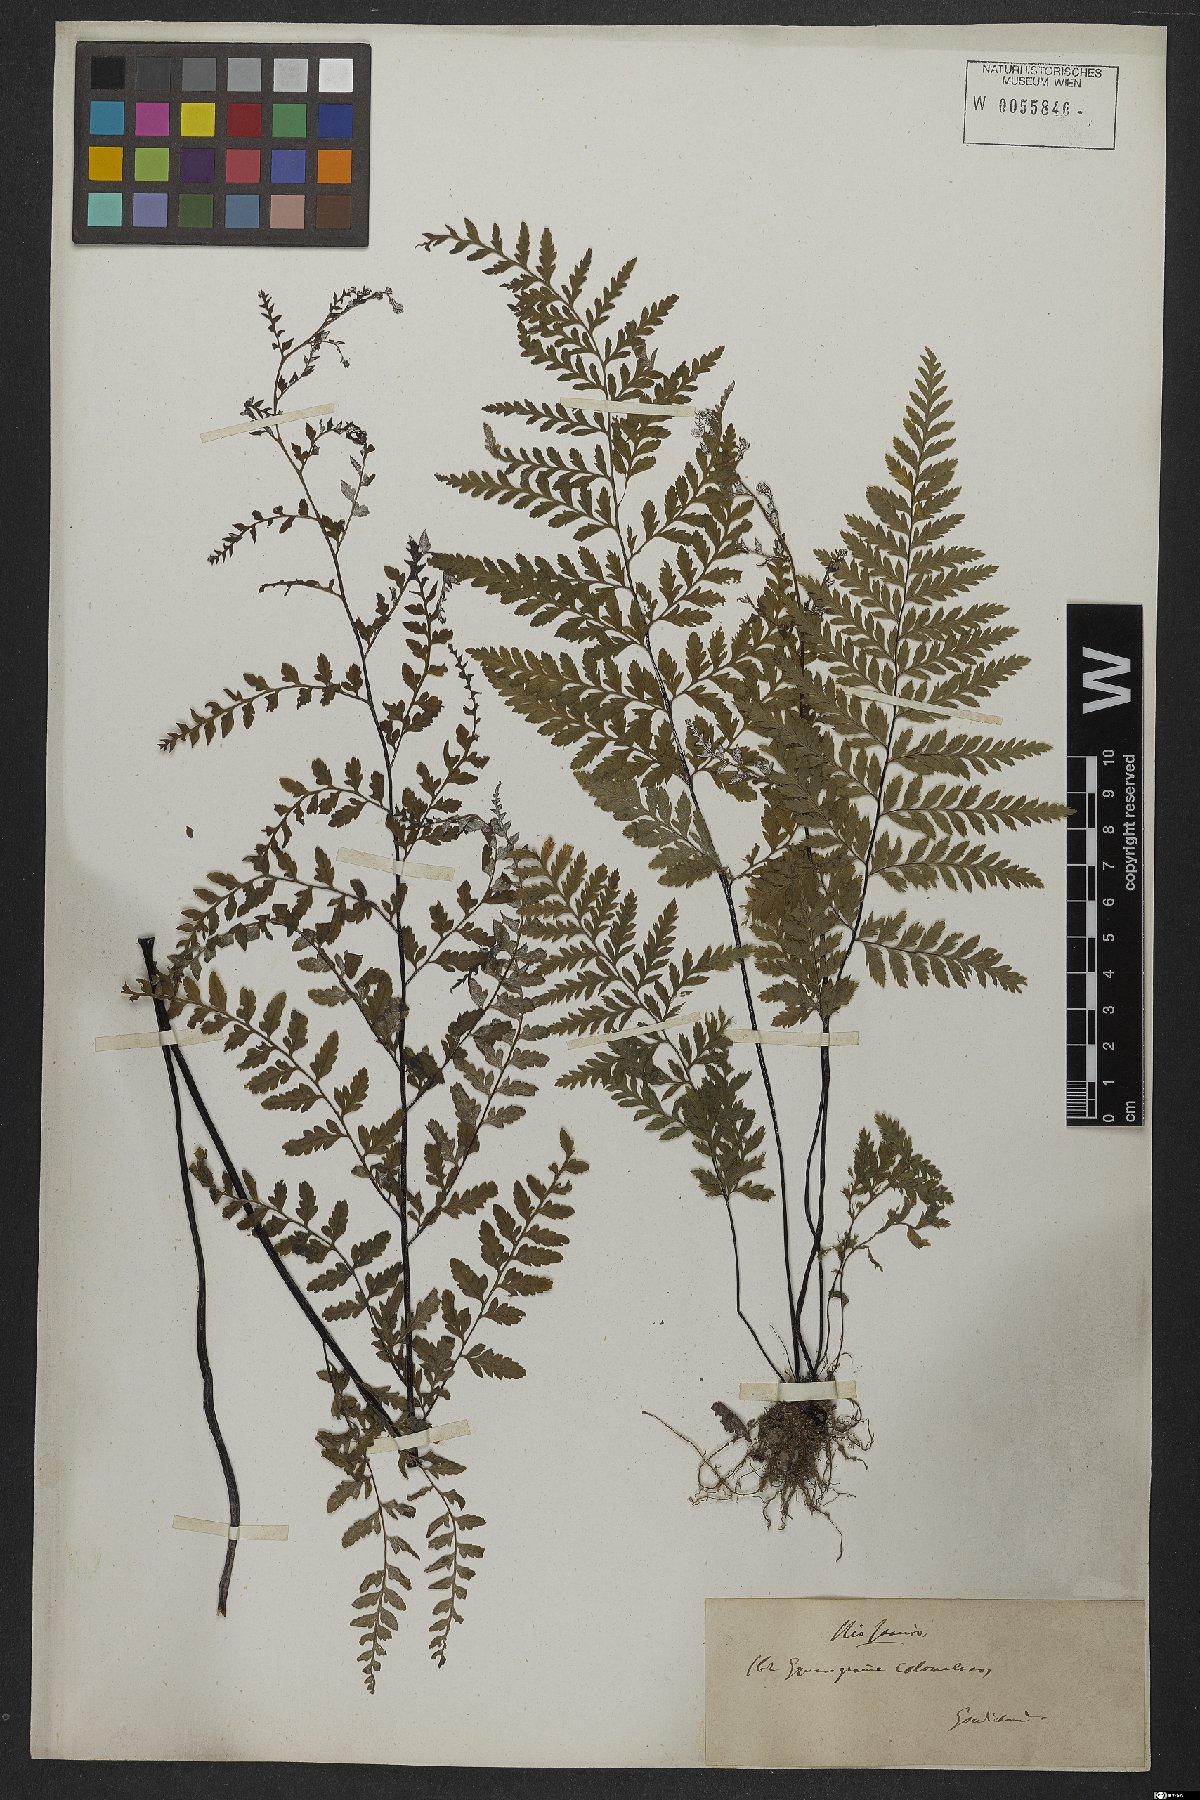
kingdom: Plantae
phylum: Tracheophyta
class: Polypodiopsida
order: Polypodiales
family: Pteridaceae
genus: Pityrogramma
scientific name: Pityrogramma calomelanos
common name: Dixie silverback fern
